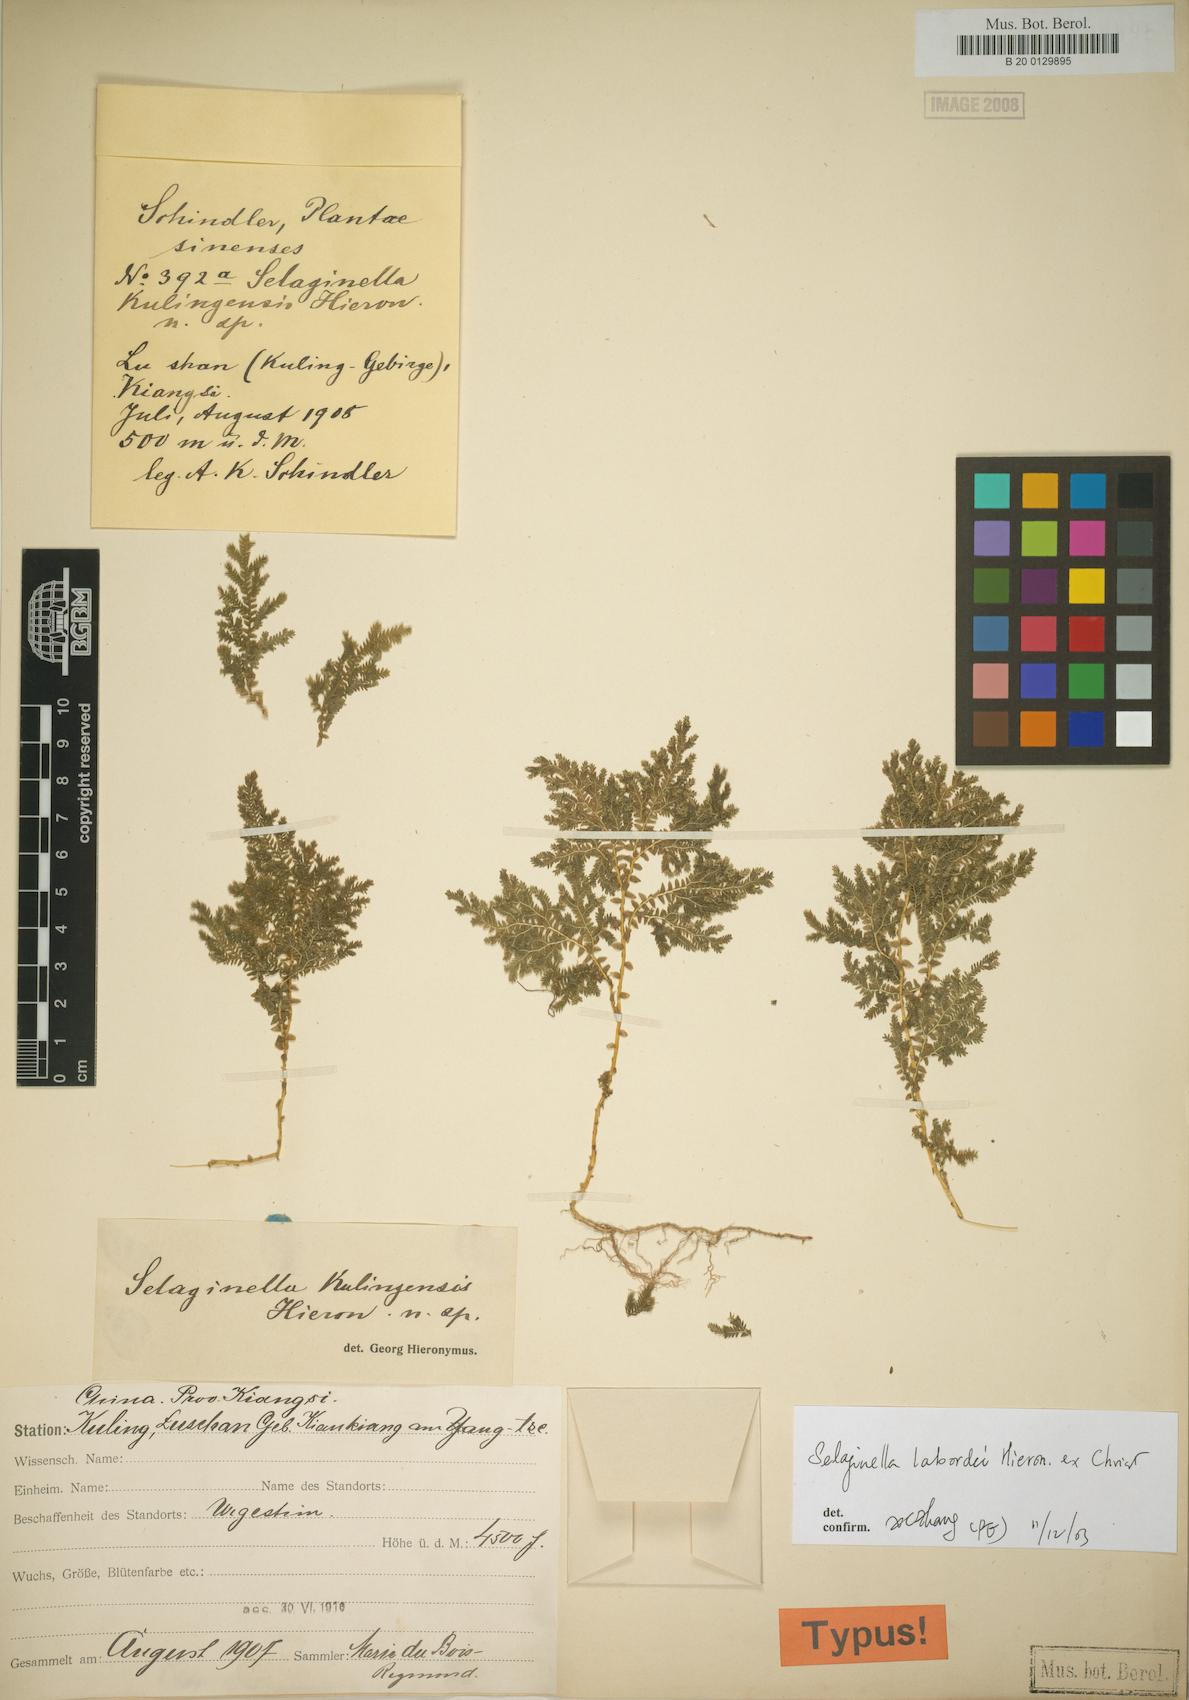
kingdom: Plantae
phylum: Tracheophyta
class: Lycopodiopsida
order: Selaginellales
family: Selaginellaceae
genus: Selaginella
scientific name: Selaginella
